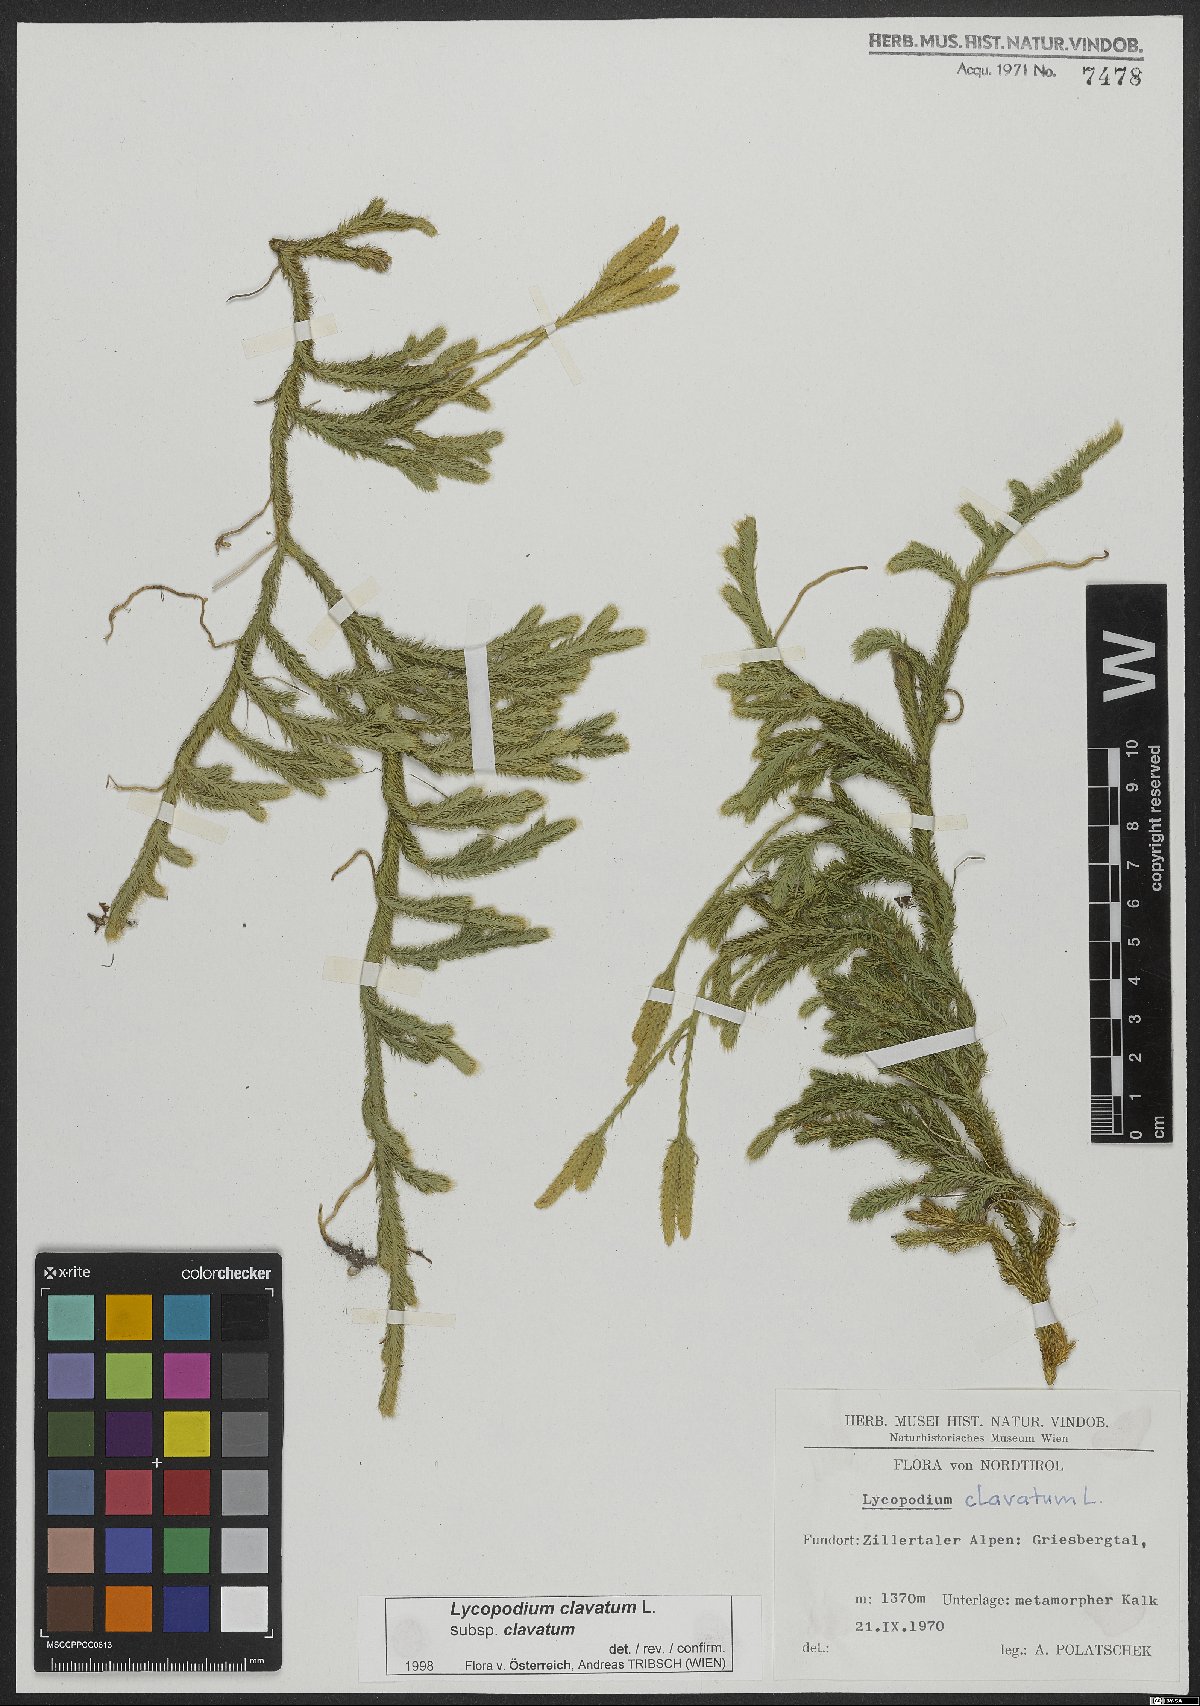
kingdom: Plantae
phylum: Tracheophyta
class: Lycopodiopsida
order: Lycopodiales
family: Lycopodiaceae
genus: Lycopodium
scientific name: Lycopodium clavatum
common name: Stag's-horn clubmoss
